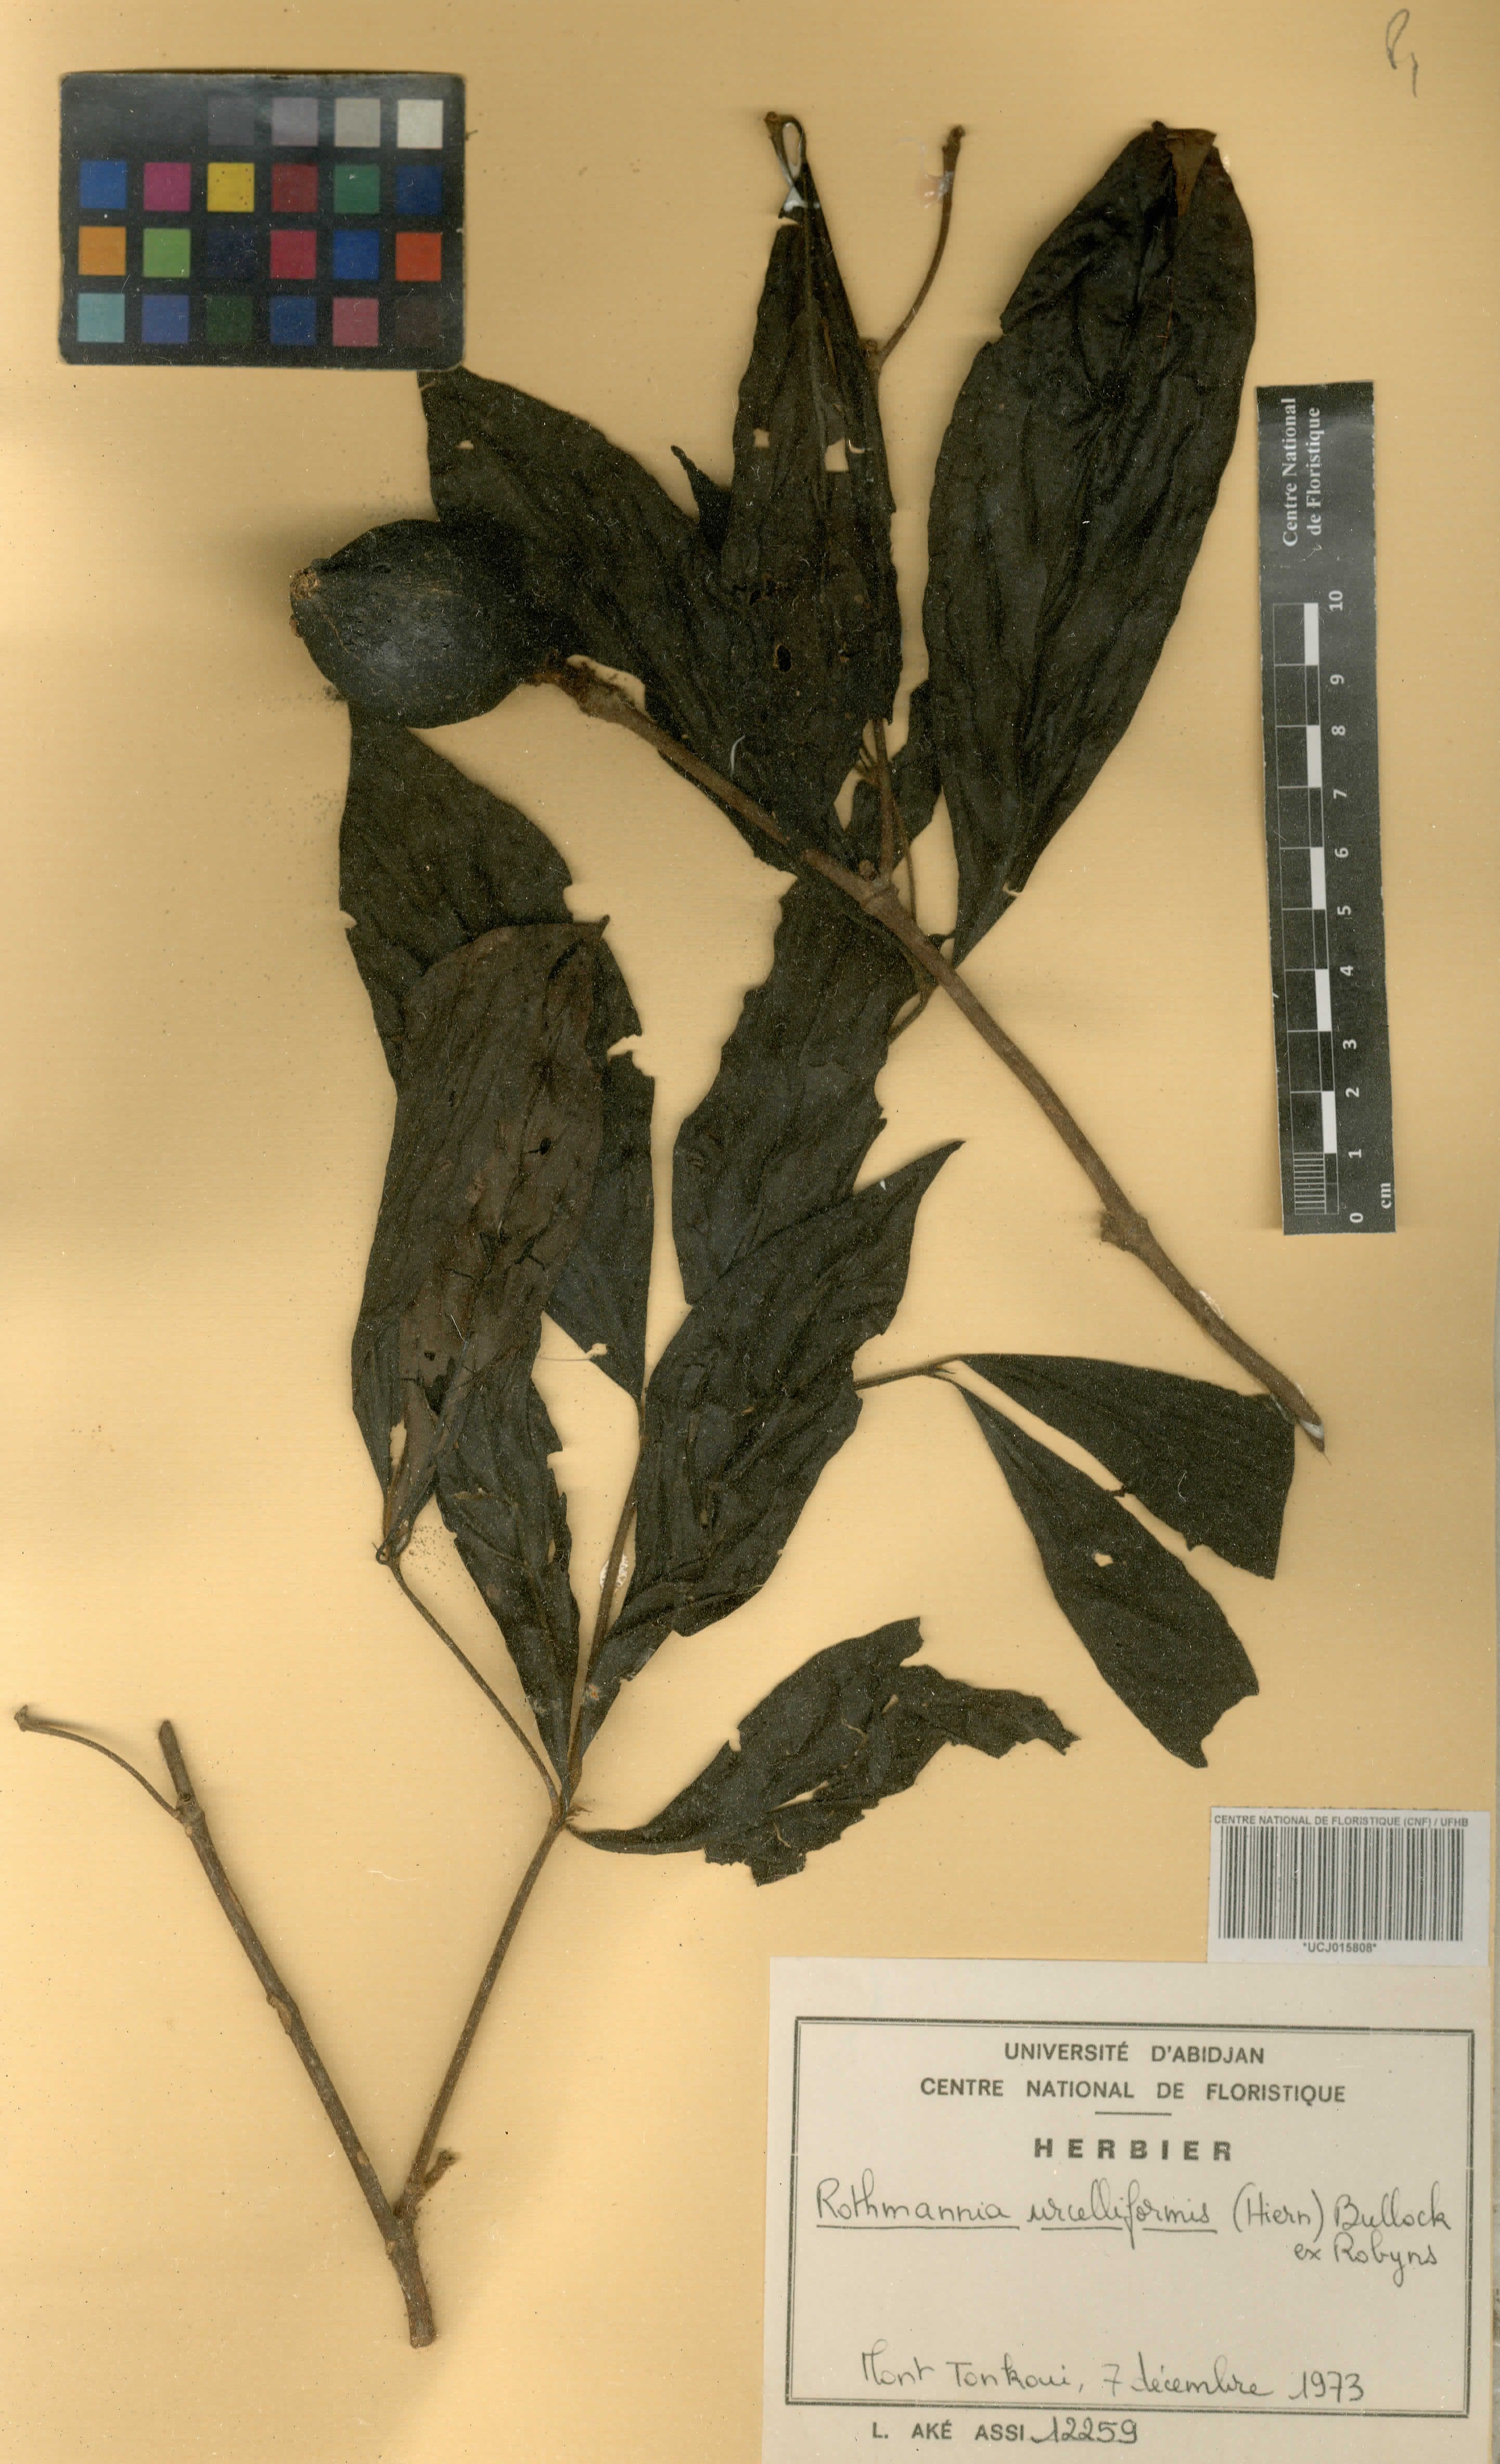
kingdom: Plantae
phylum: Tracheophyta
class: Magnoliopsida
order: Gentianales
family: Rubiaceae
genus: Rothmannia
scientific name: Rothmannia urcelliformis
